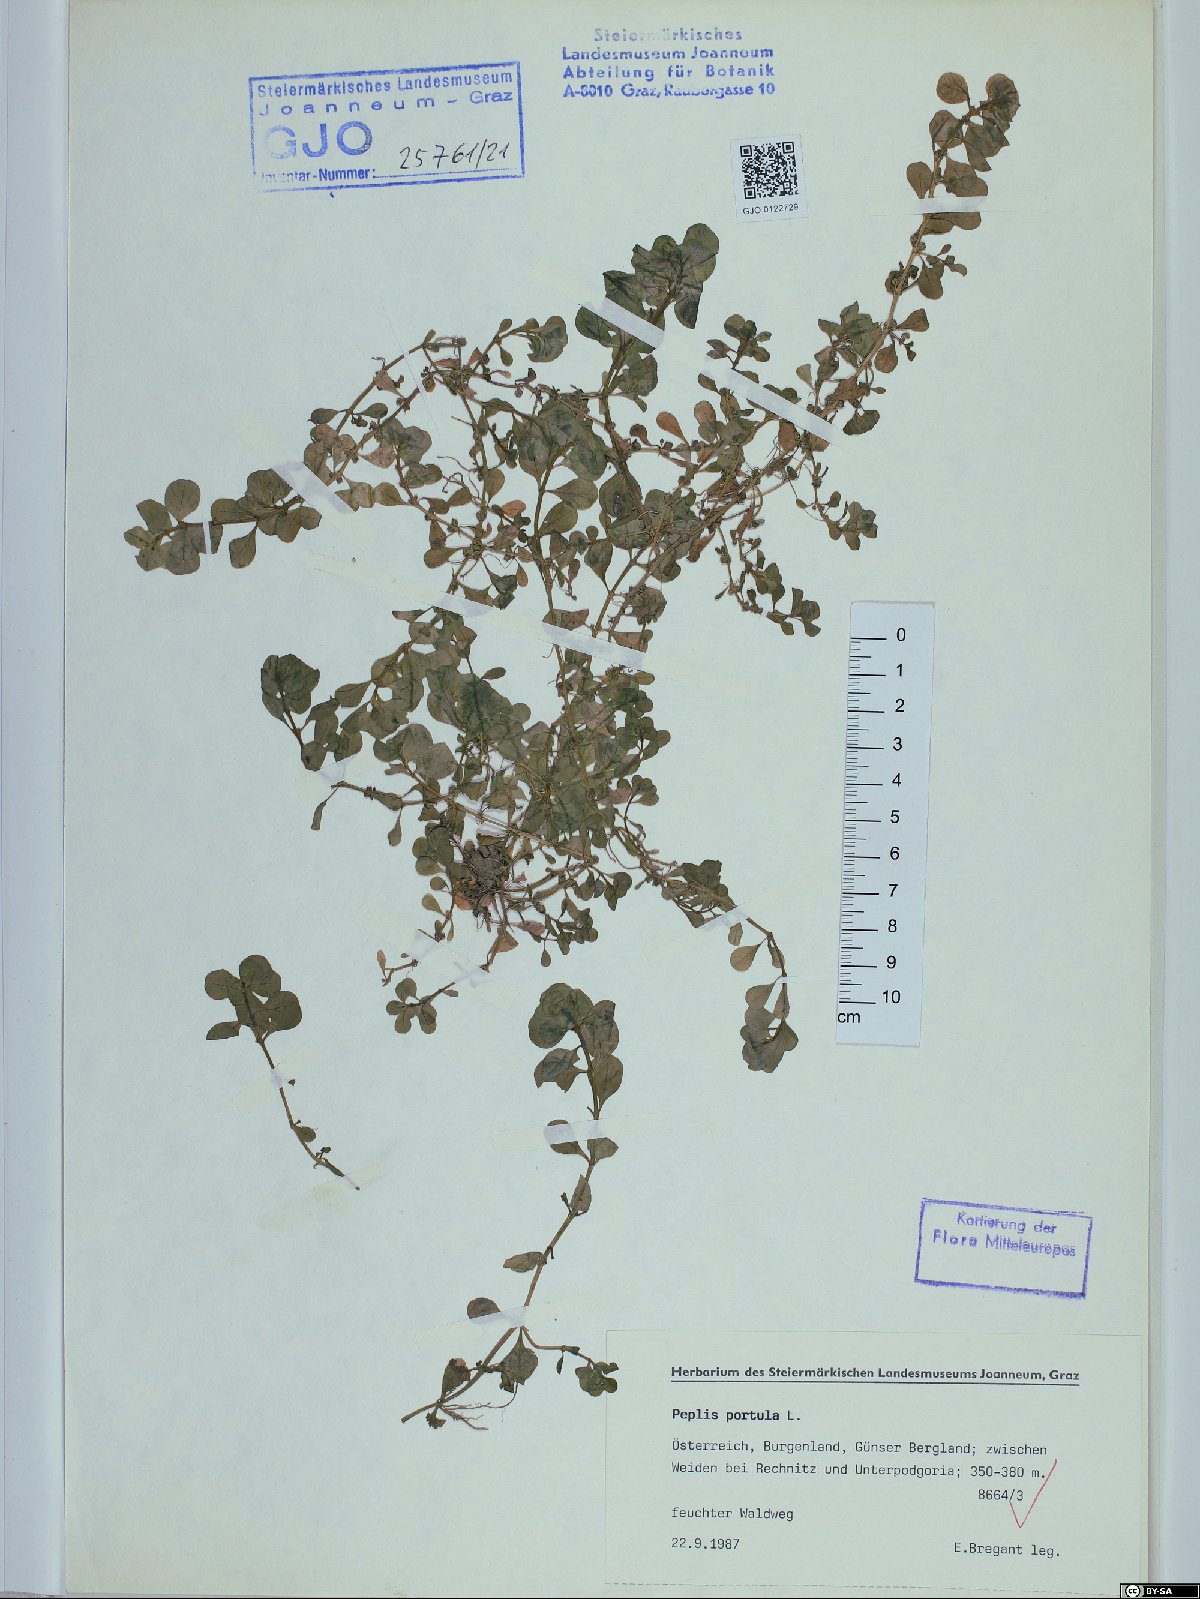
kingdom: Plantae
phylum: Tracheophyta
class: Magnoliopsida
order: Myrtales
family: Lythraceae
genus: Lythrum
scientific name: Lythrum portula
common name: Water purslane
